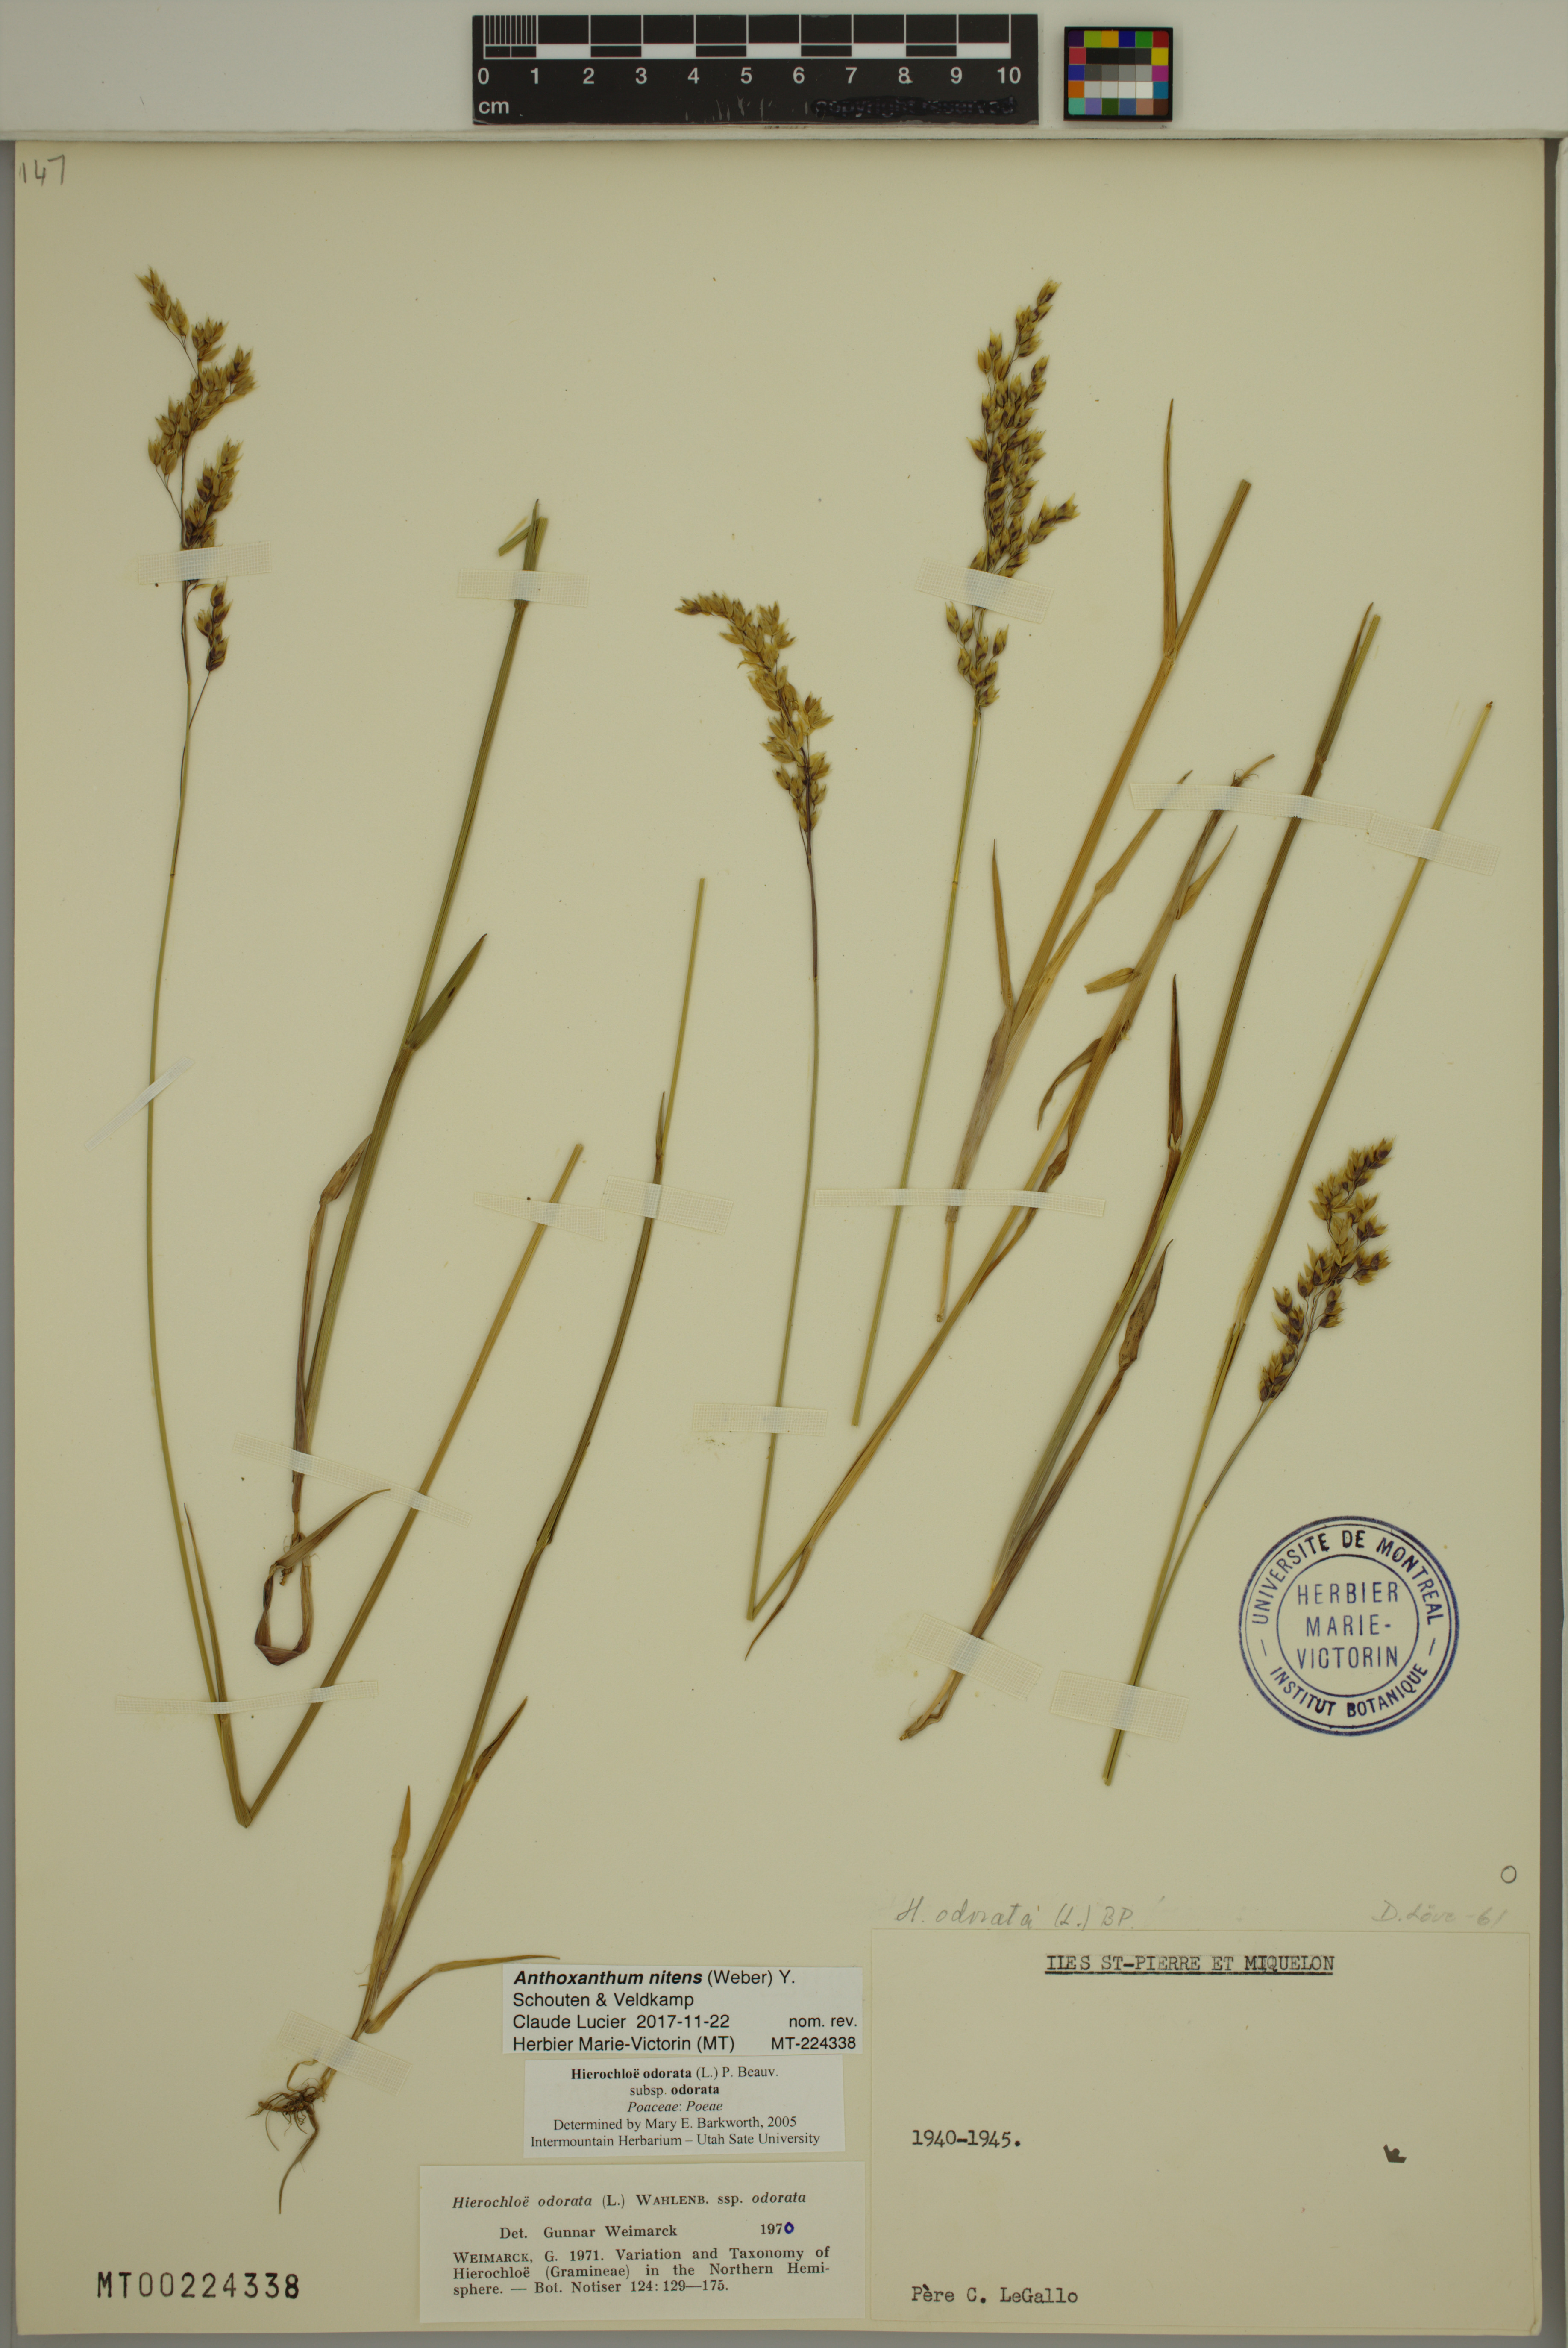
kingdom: Plantae
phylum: Tracheophyta
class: Liliopsida
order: Poales
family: Poaceae
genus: Anthoxanthum
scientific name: Anthoxanthum nitens
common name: Holy grass
